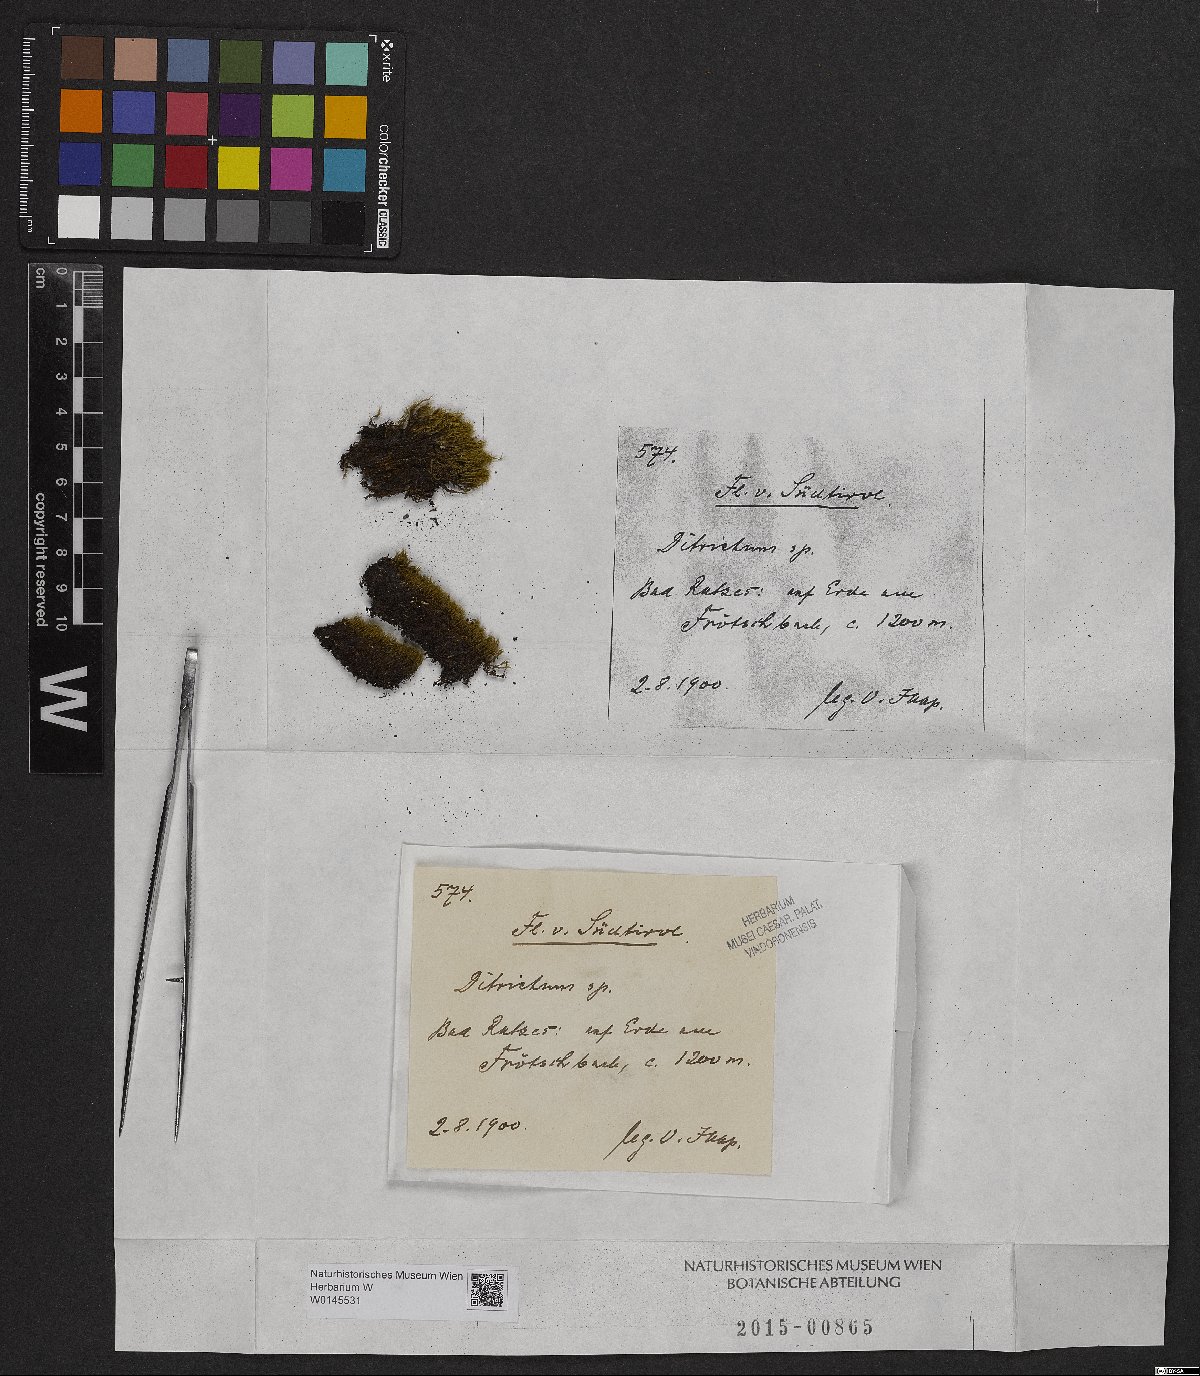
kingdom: Plantae
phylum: Bryophyta
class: Bryopsida
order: Dicranales
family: Ditrichaceae
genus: Ditrichum
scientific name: Ditrichum
